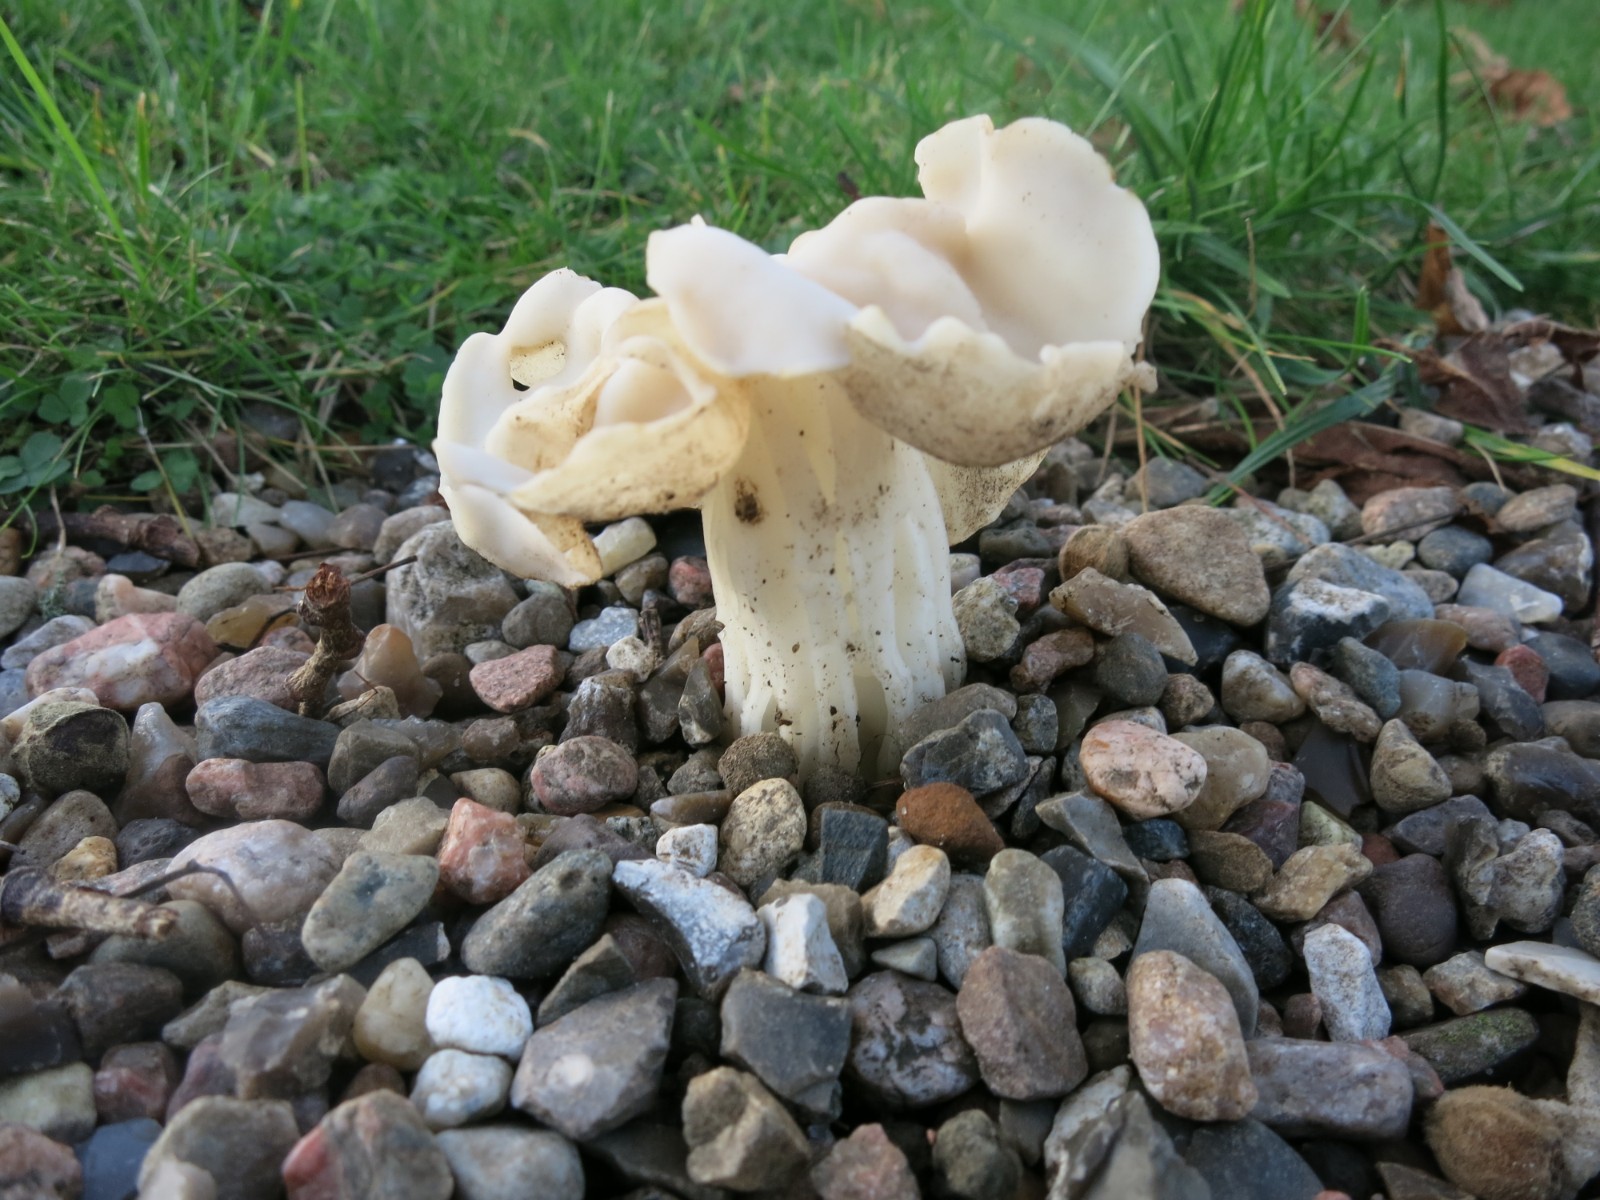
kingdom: Fungi
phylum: Ascomycota
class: Pezizomycetes
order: Pezizales
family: Helvellaceae
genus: Helvella
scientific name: Helvella crispa
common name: kruset foldhat
